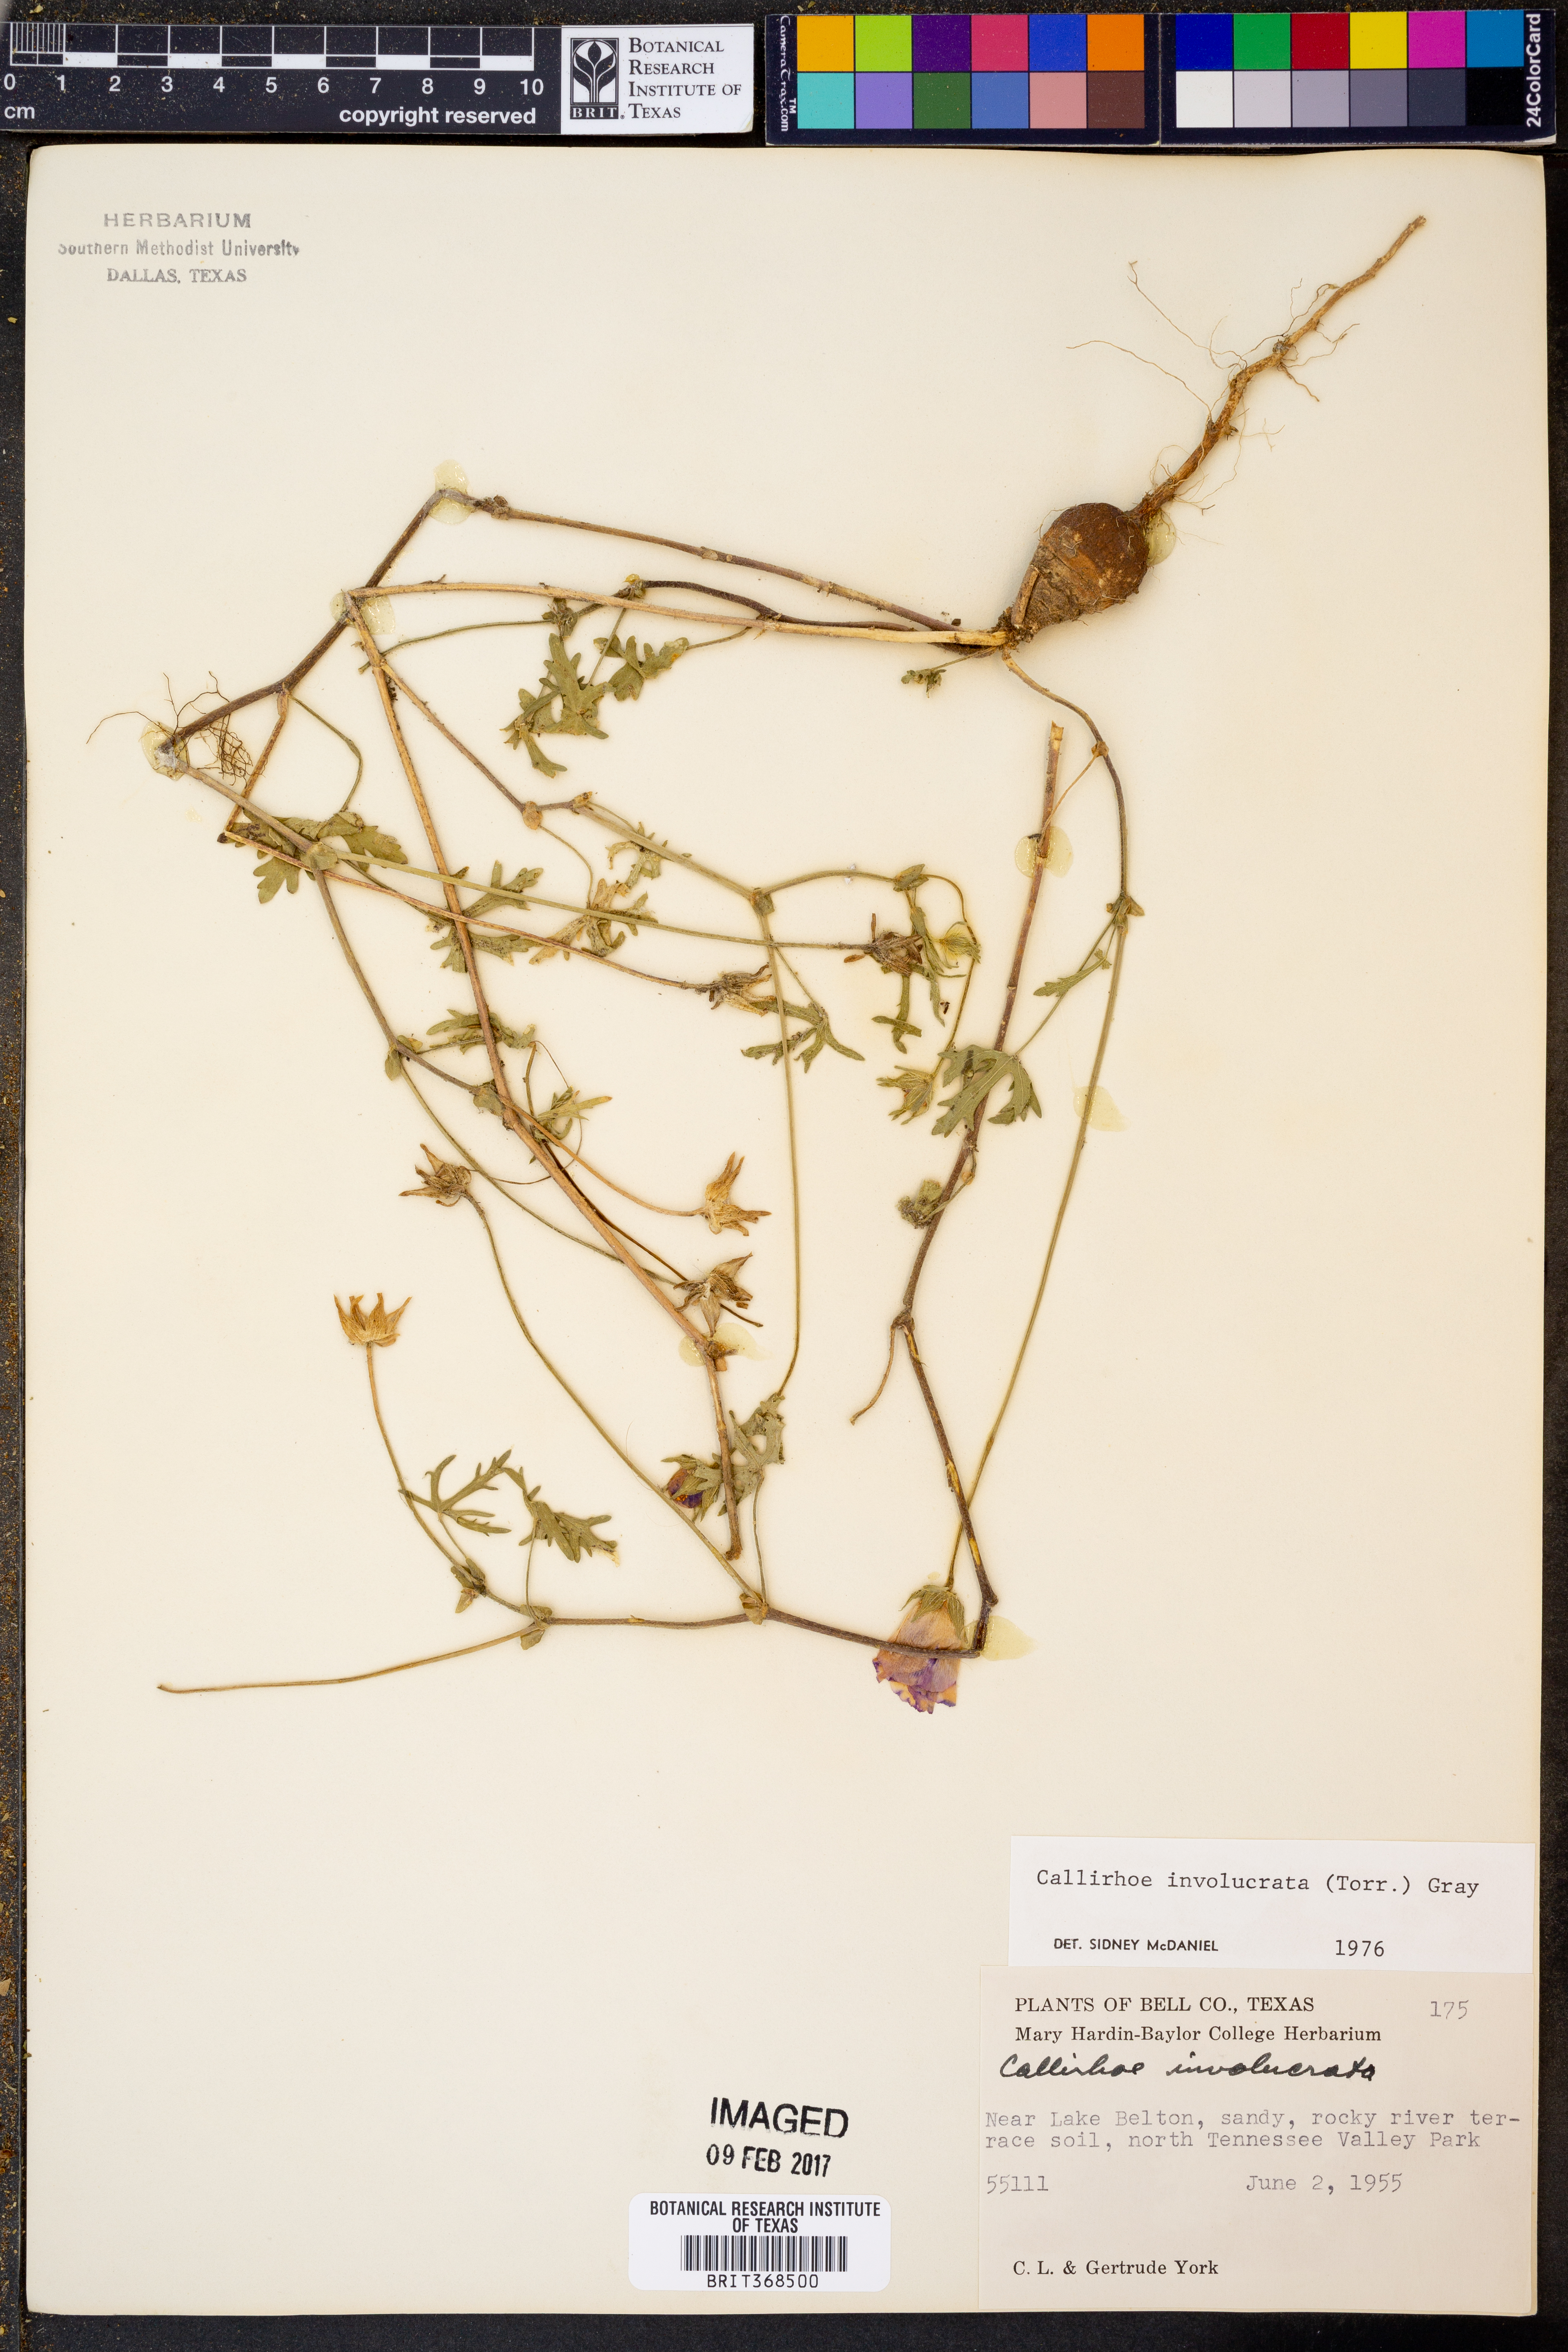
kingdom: Plantae
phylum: Tracheophyta
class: Magnoliopsida
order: Malvales
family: Malvaceae
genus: Callirhoe
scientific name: Callirhoe involucrata
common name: Purple poppy-mallow
